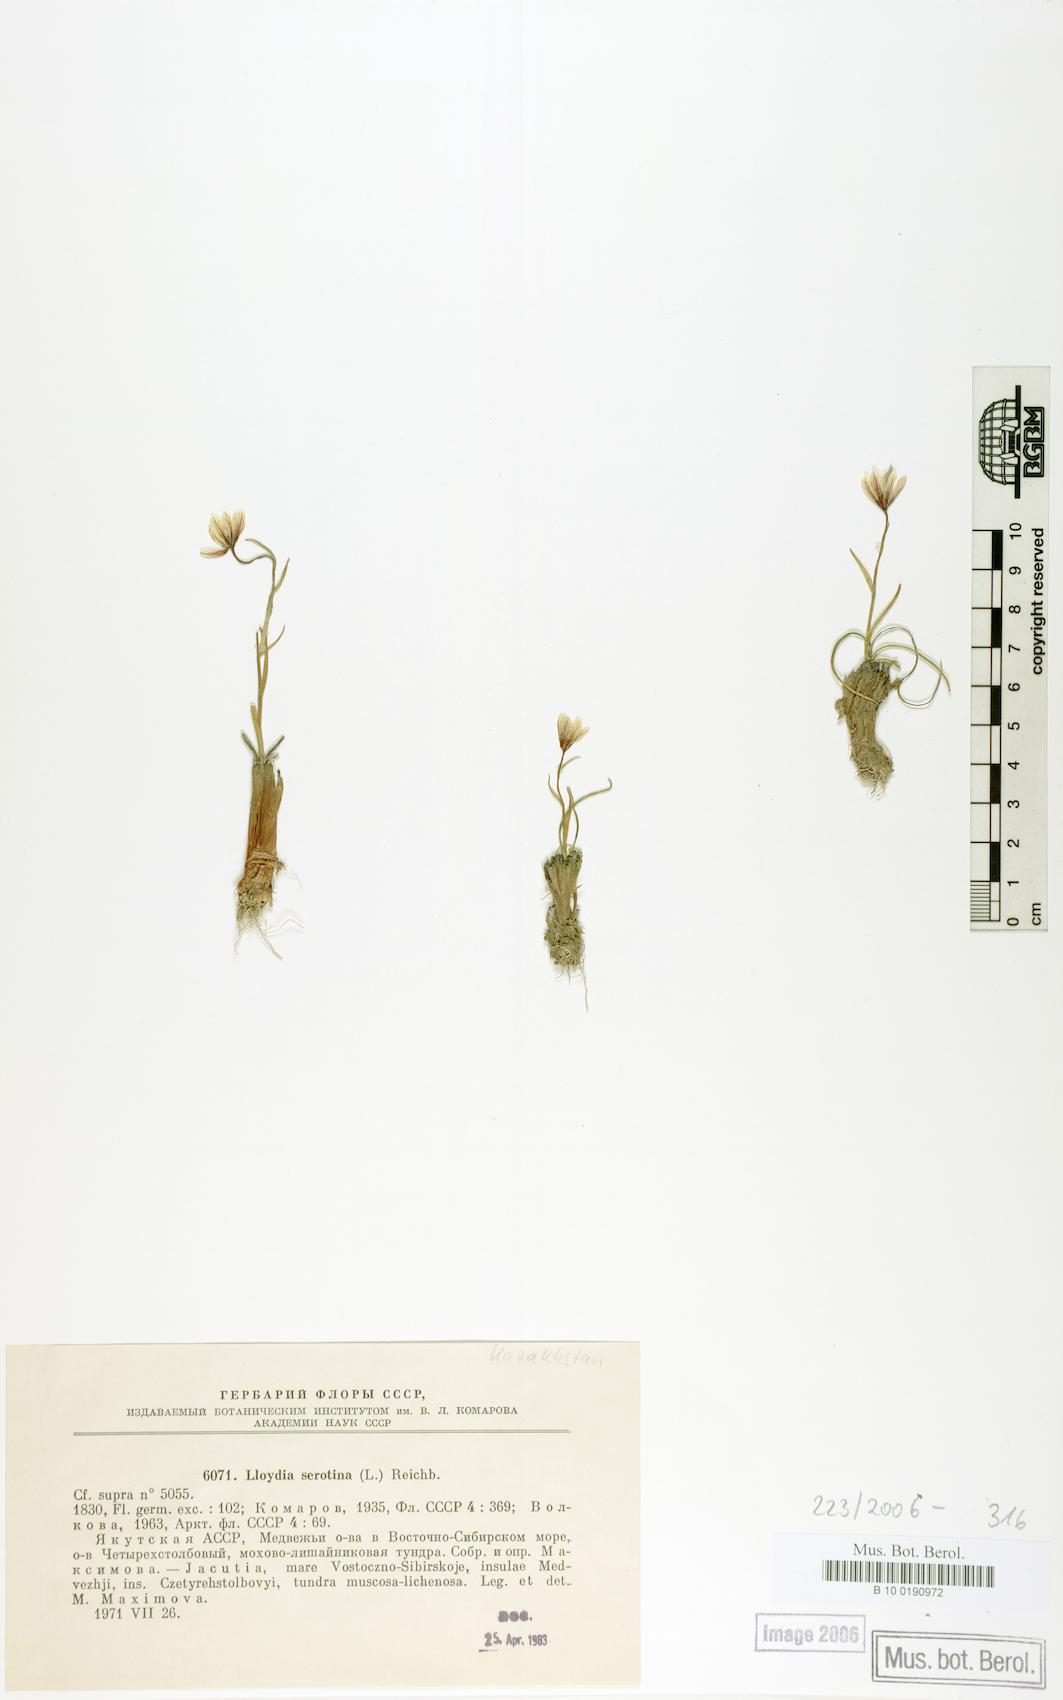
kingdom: Plantae
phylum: Tracheophyta
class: Liliopsida
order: Liliales
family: Liliaceae
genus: Gagea
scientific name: Gagea serotina
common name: Snowdon lily
